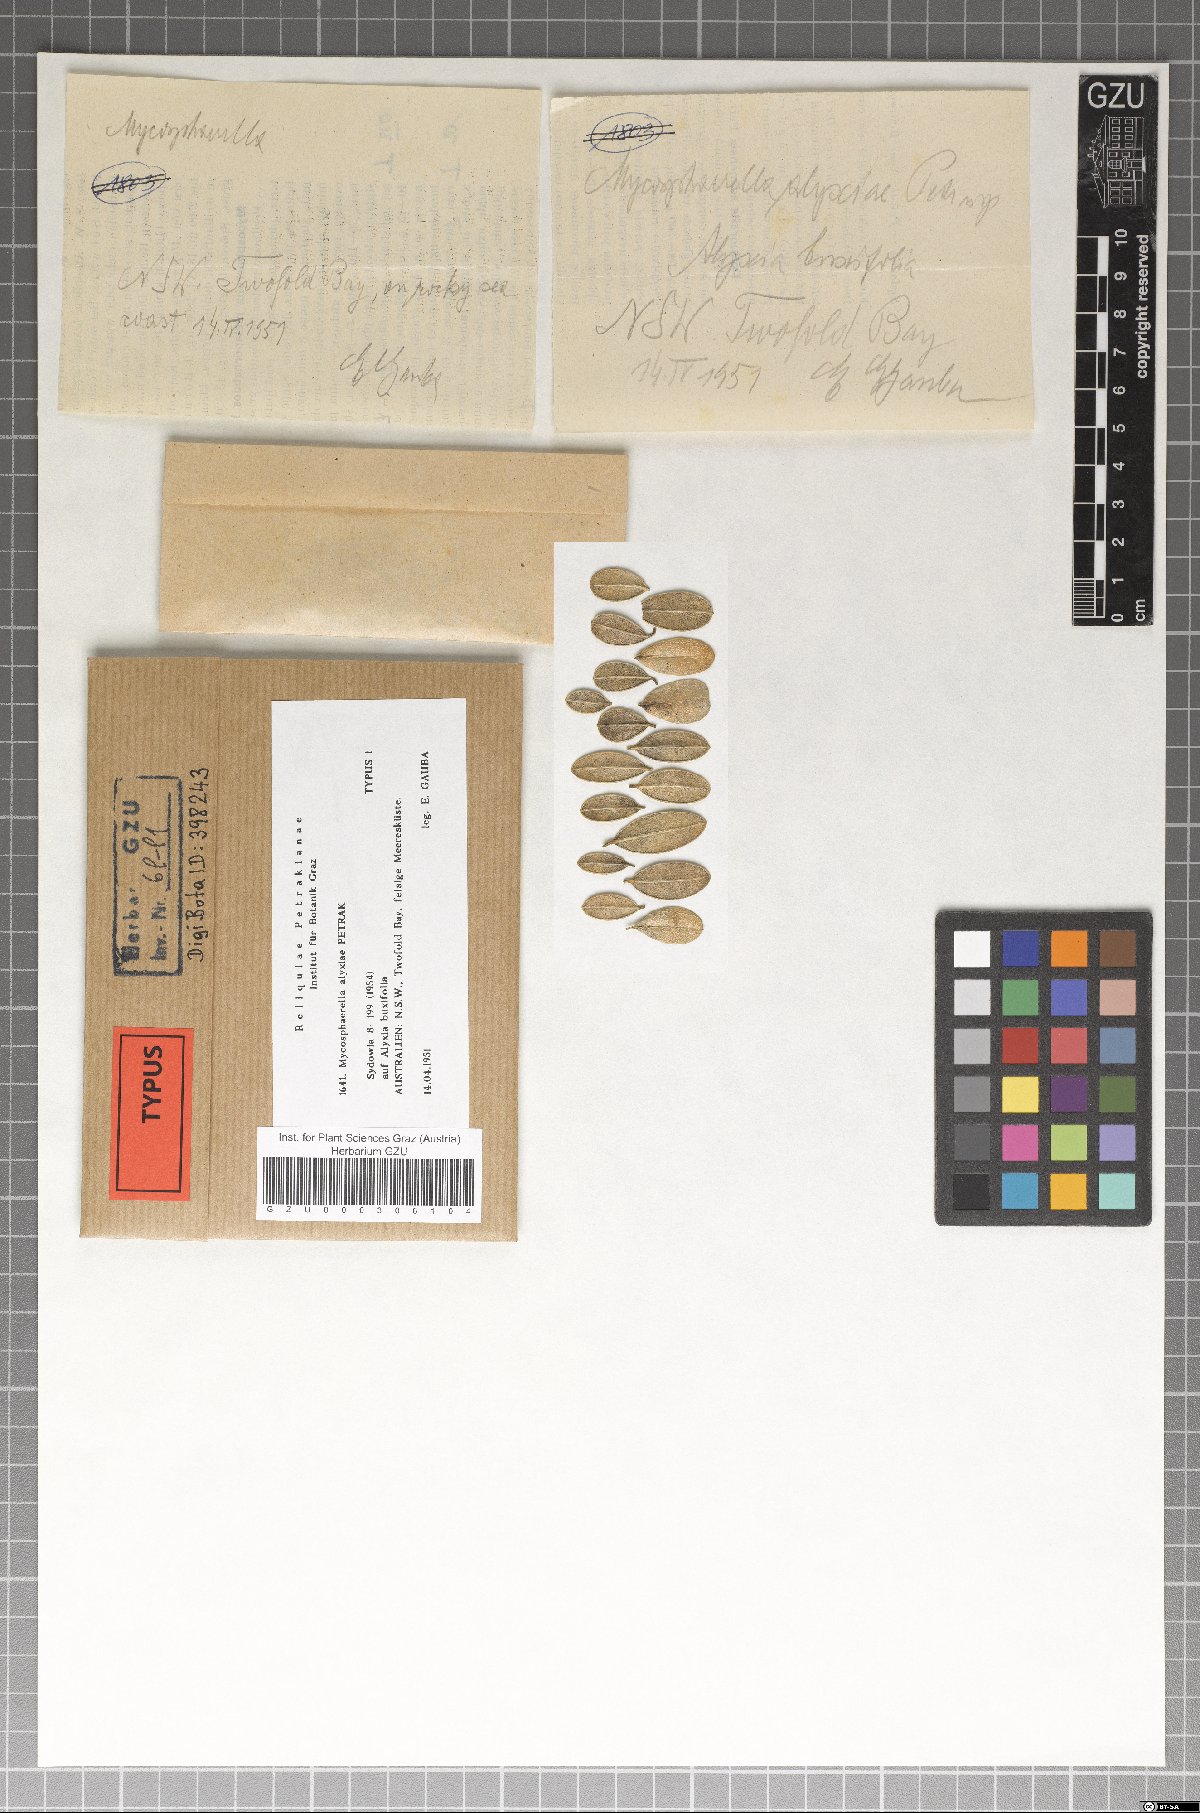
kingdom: Fungi
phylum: Ascomycota
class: Dothideomycetes
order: Mycosphaerellales
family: Mycosphaerellaceae
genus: Mycosphaerella
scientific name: Mycosphaerella alyxiae
